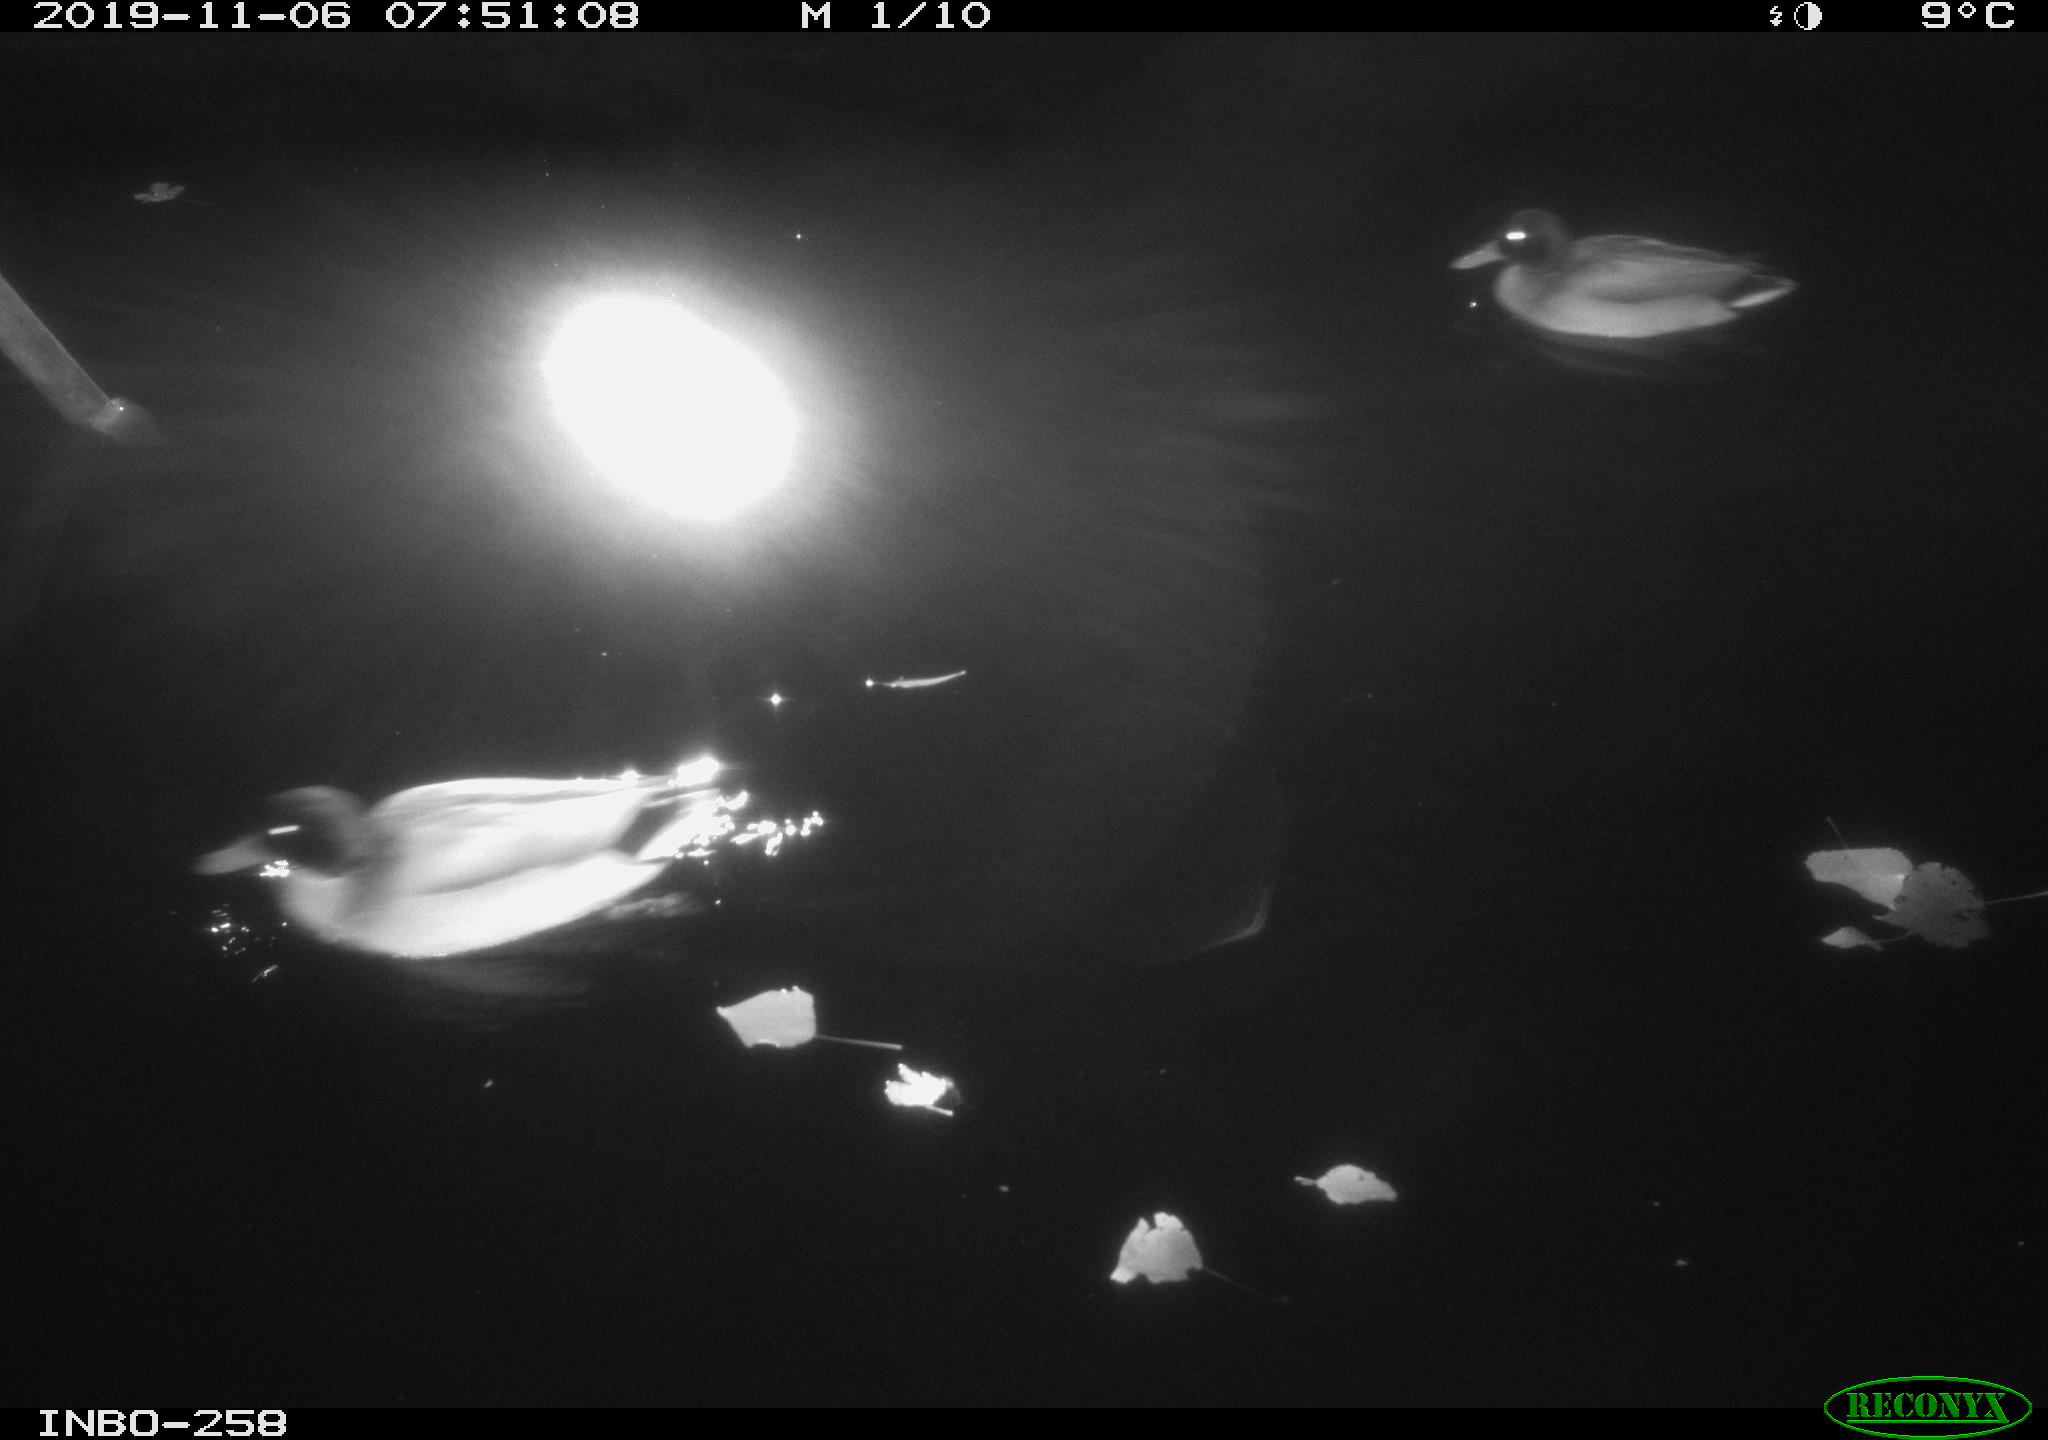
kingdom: Animalia
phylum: Chordata
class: Aves
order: Anseriformes
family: Anatidae
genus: Anas
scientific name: Anas platyrhynchos
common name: Mallard
